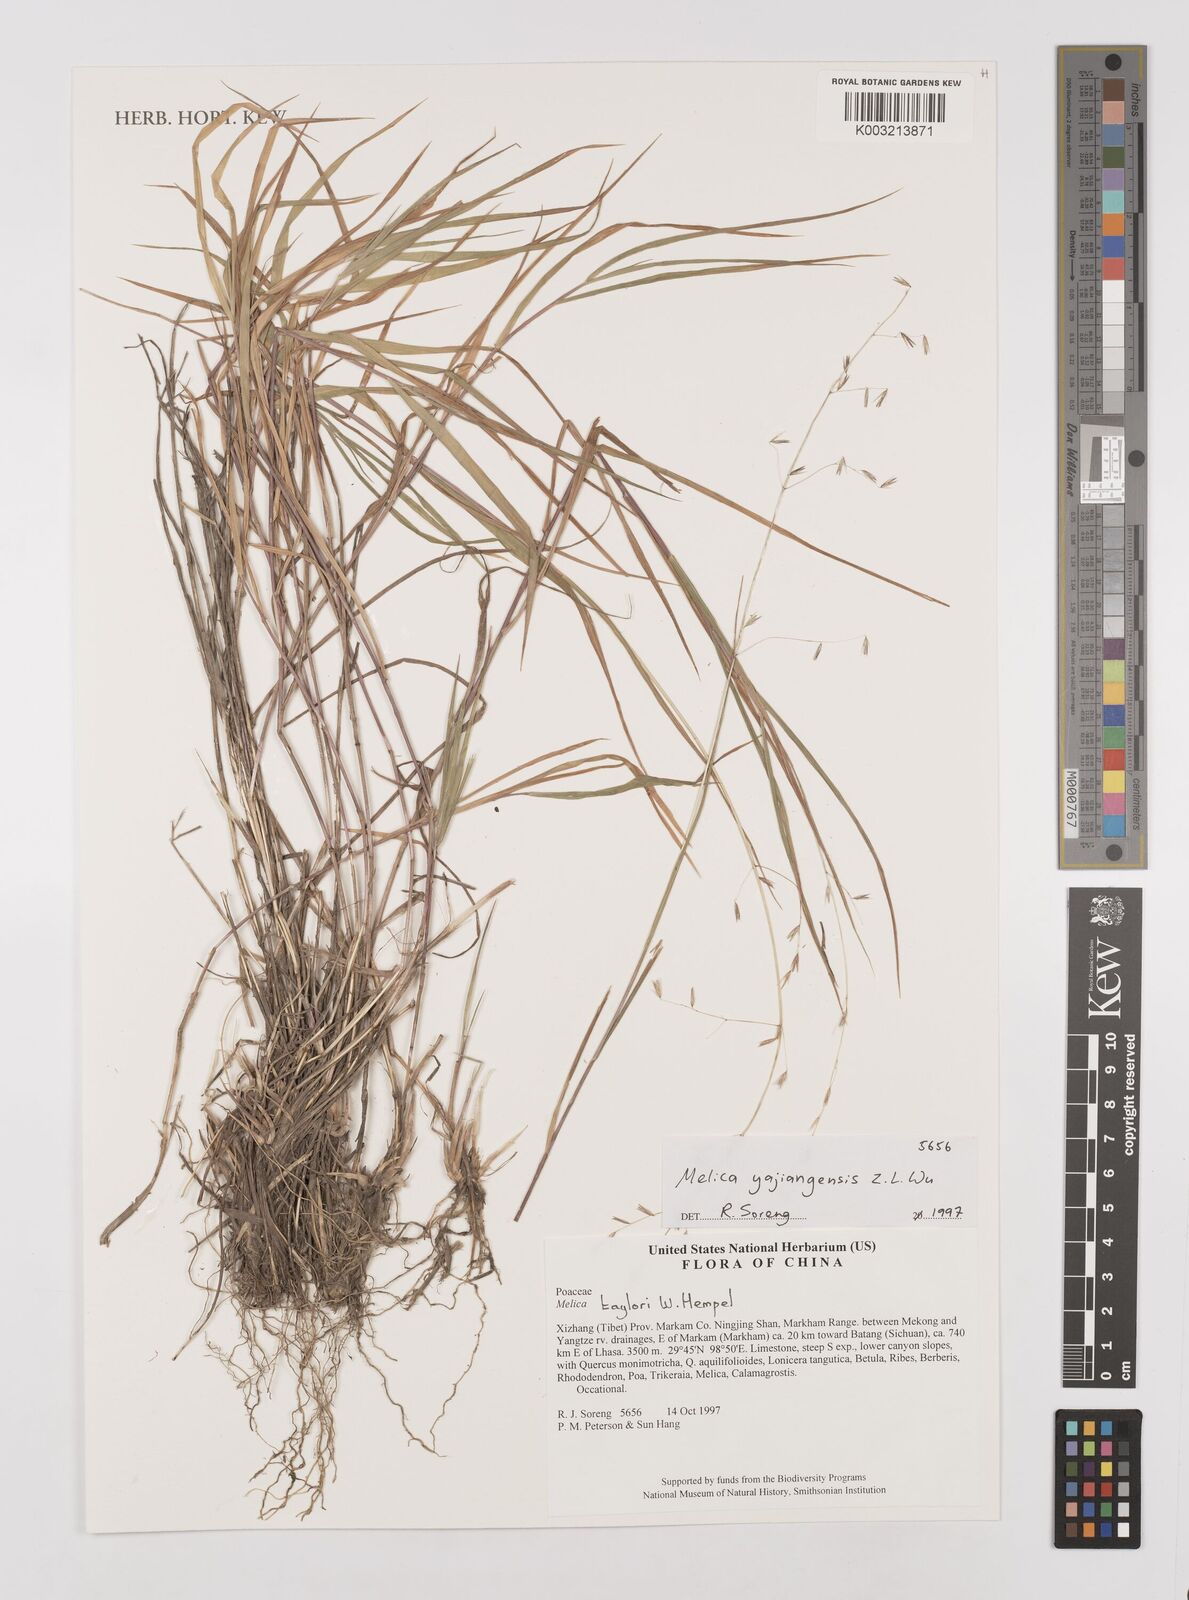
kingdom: Plantae
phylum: Tracheophyta
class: Liliopsida
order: Poales
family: Poaceae
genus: Melica
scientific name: Melica yajiangensis
